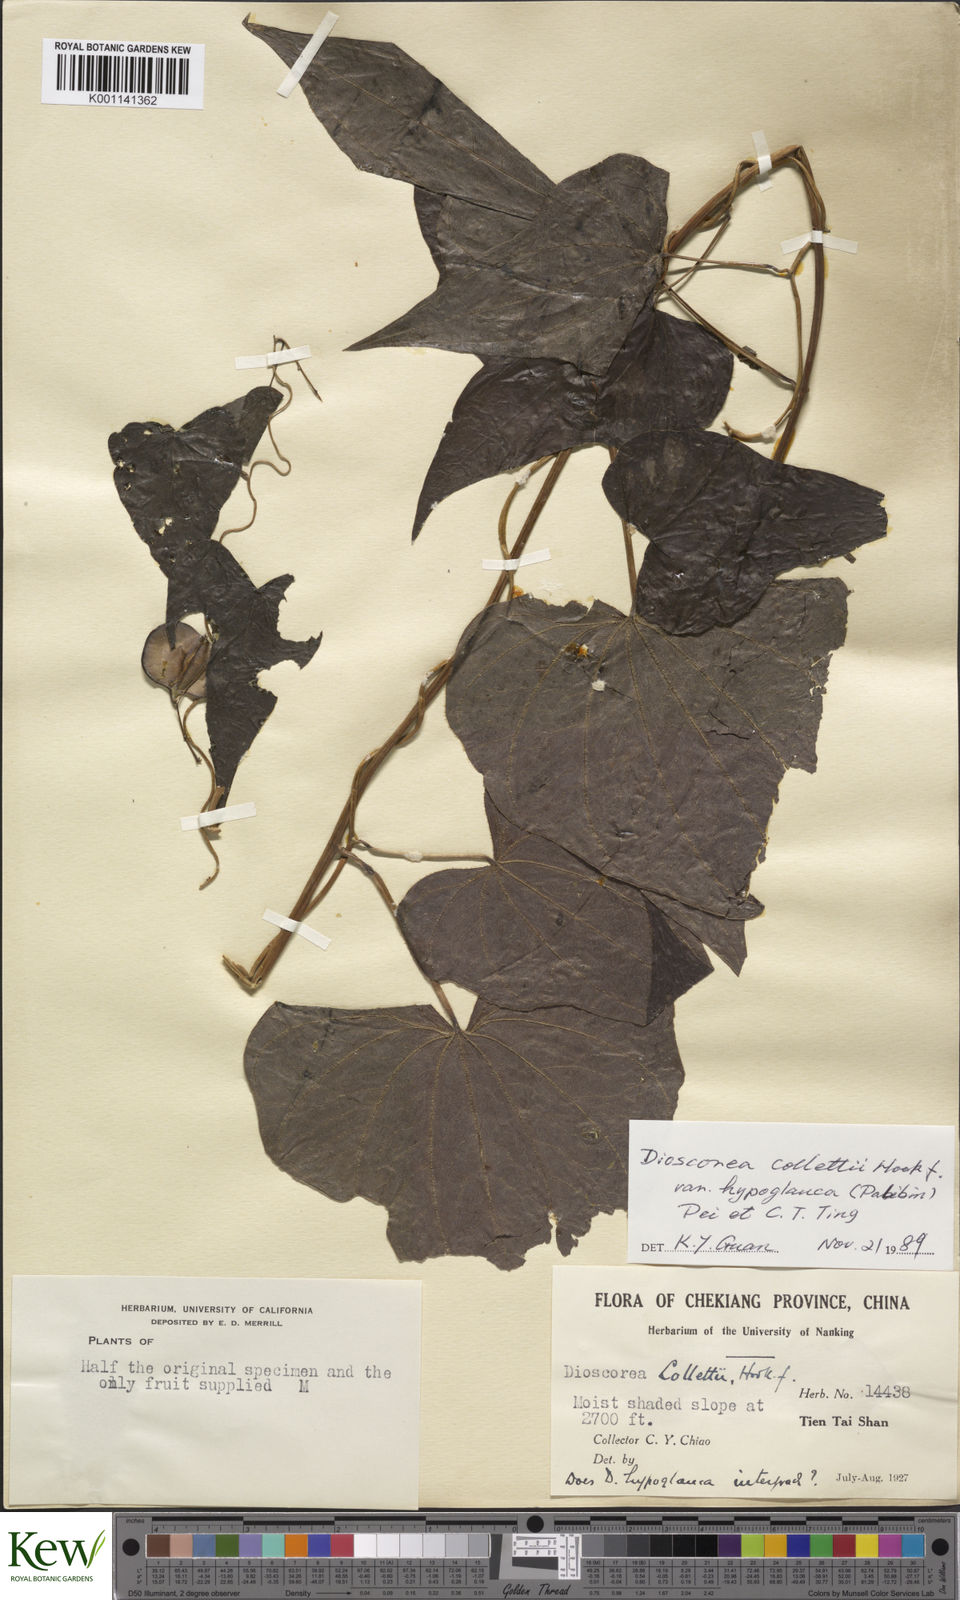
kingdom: Plantae
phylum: Tracheophyta
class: Liliopsida
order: Dioscoreales
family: Dioscoreaceae
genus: Dioscorea
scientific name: Dioscorea collettii
